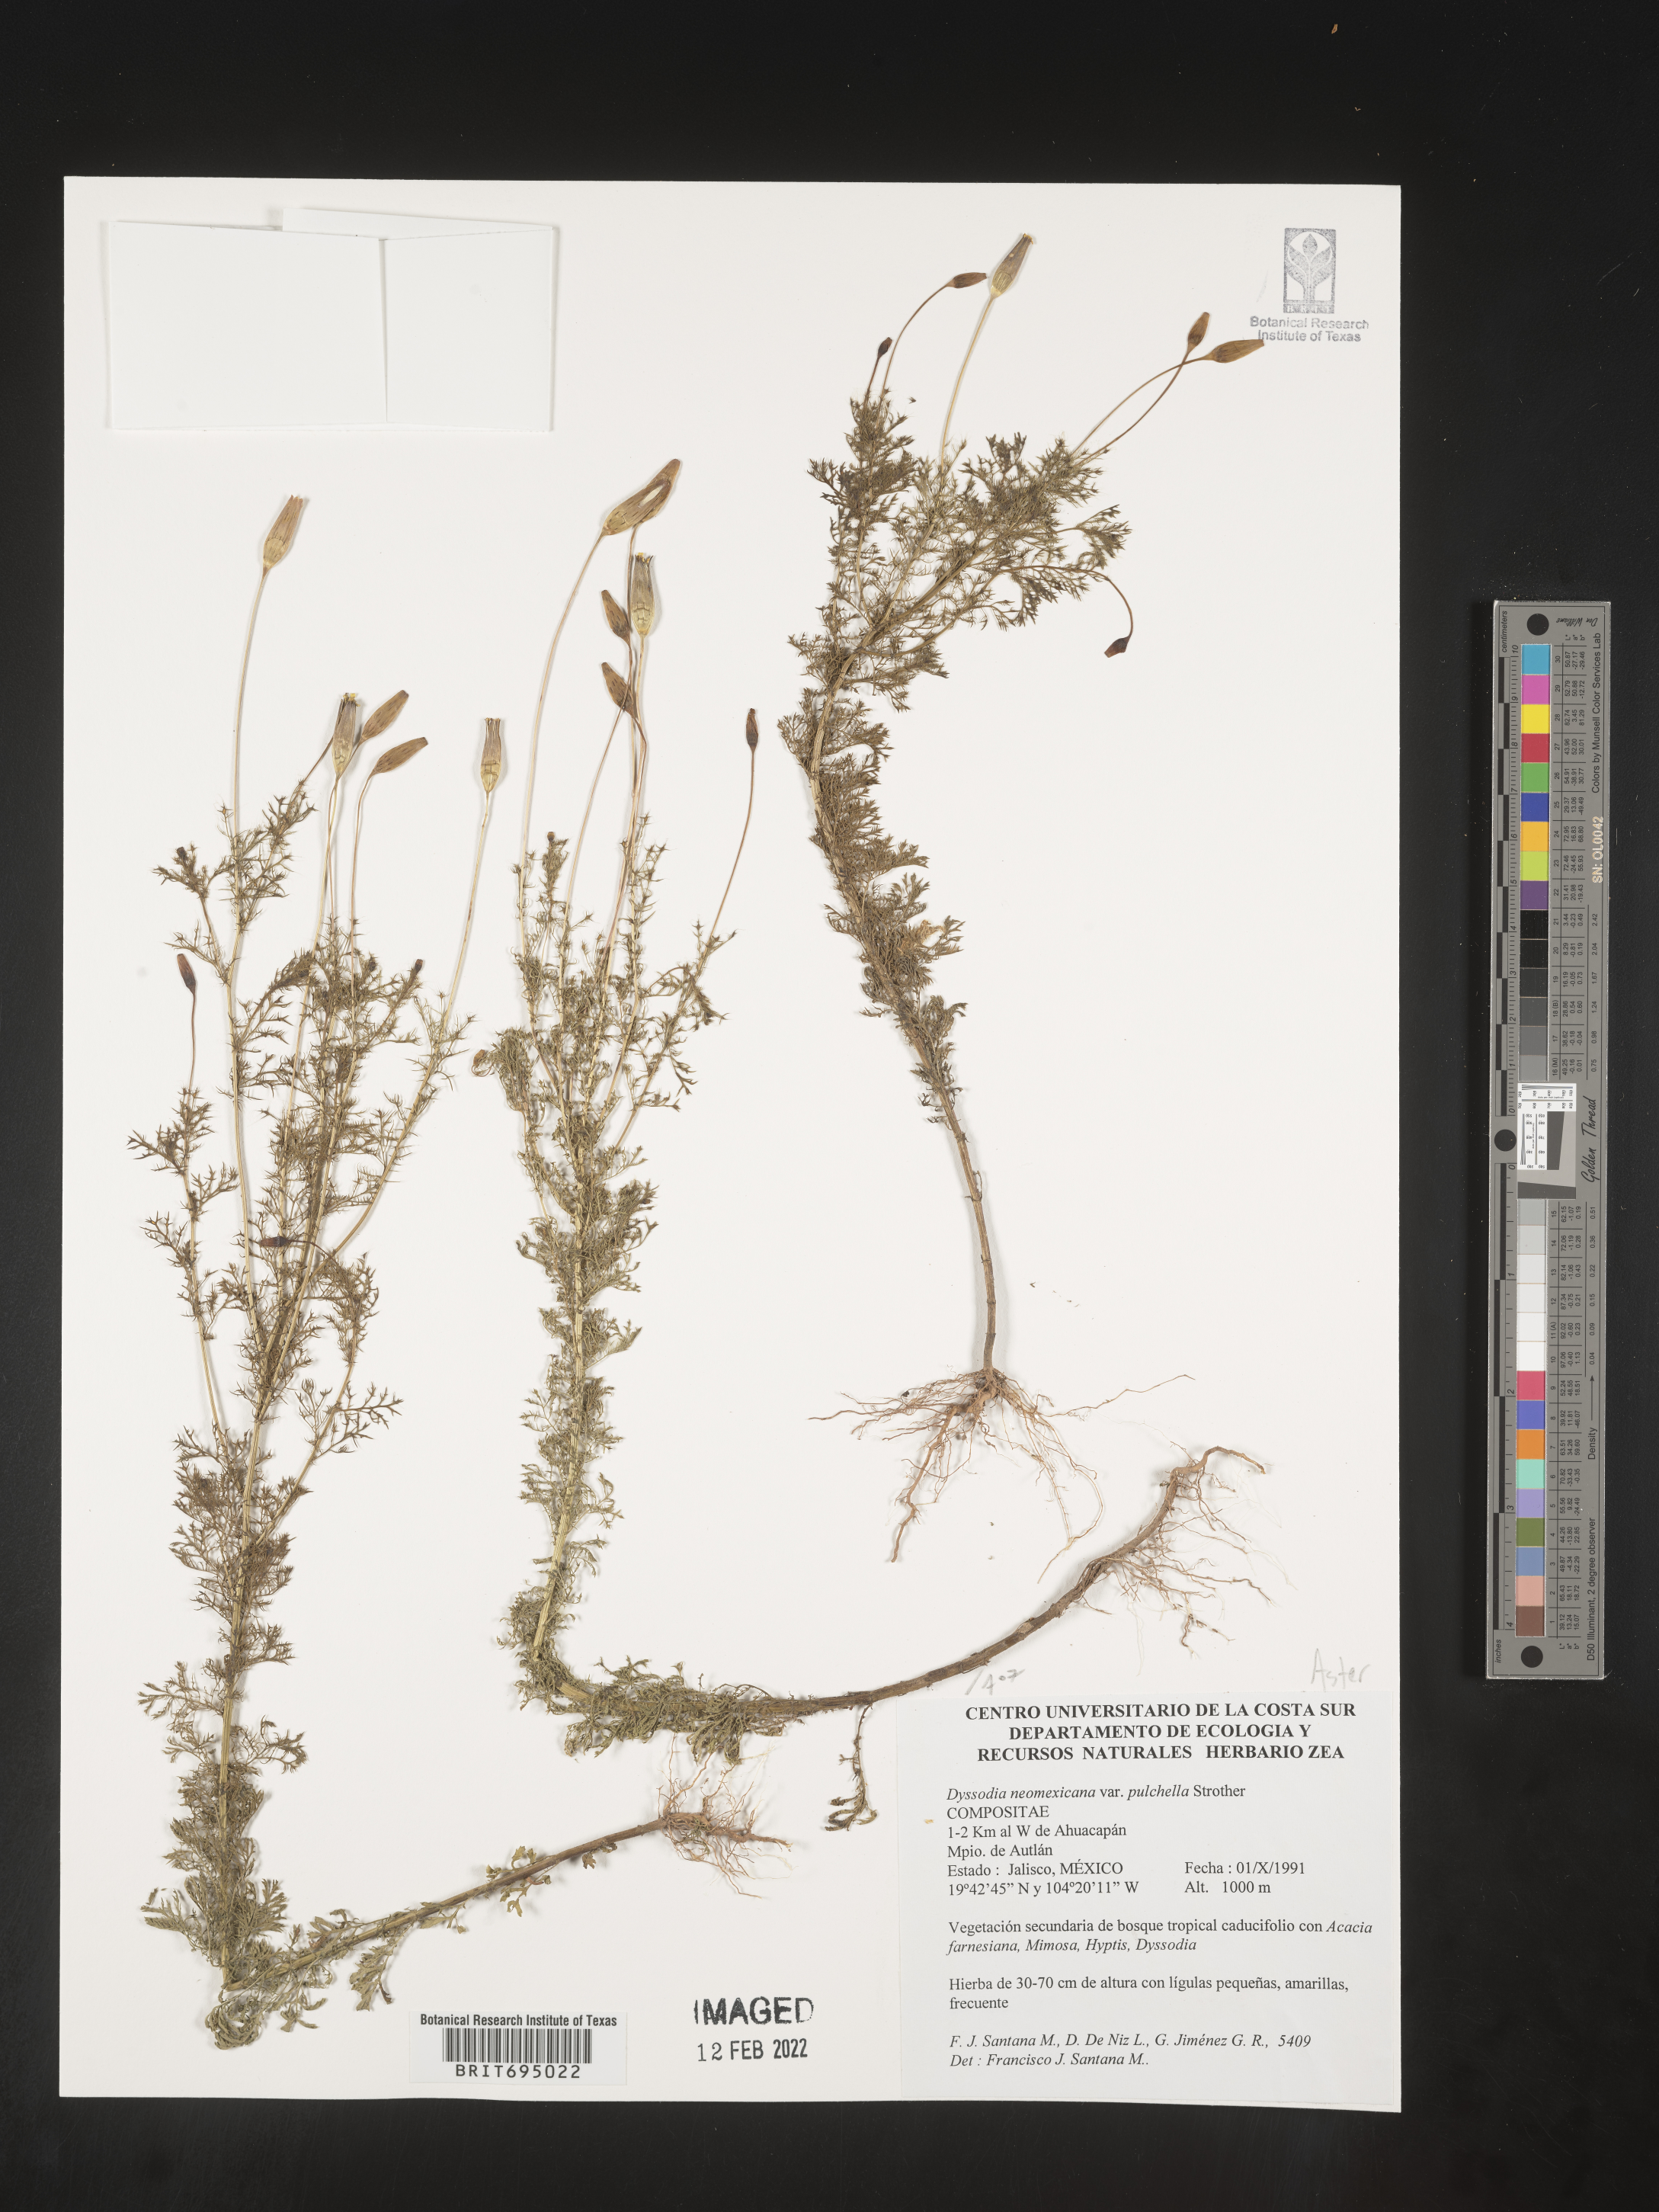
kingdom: Plantae
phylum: Tracheophyta
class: Magnoliopsida
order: Asterales
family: Asteraceae
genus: Adenophyllum
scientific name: Adenophyllum wrightii
